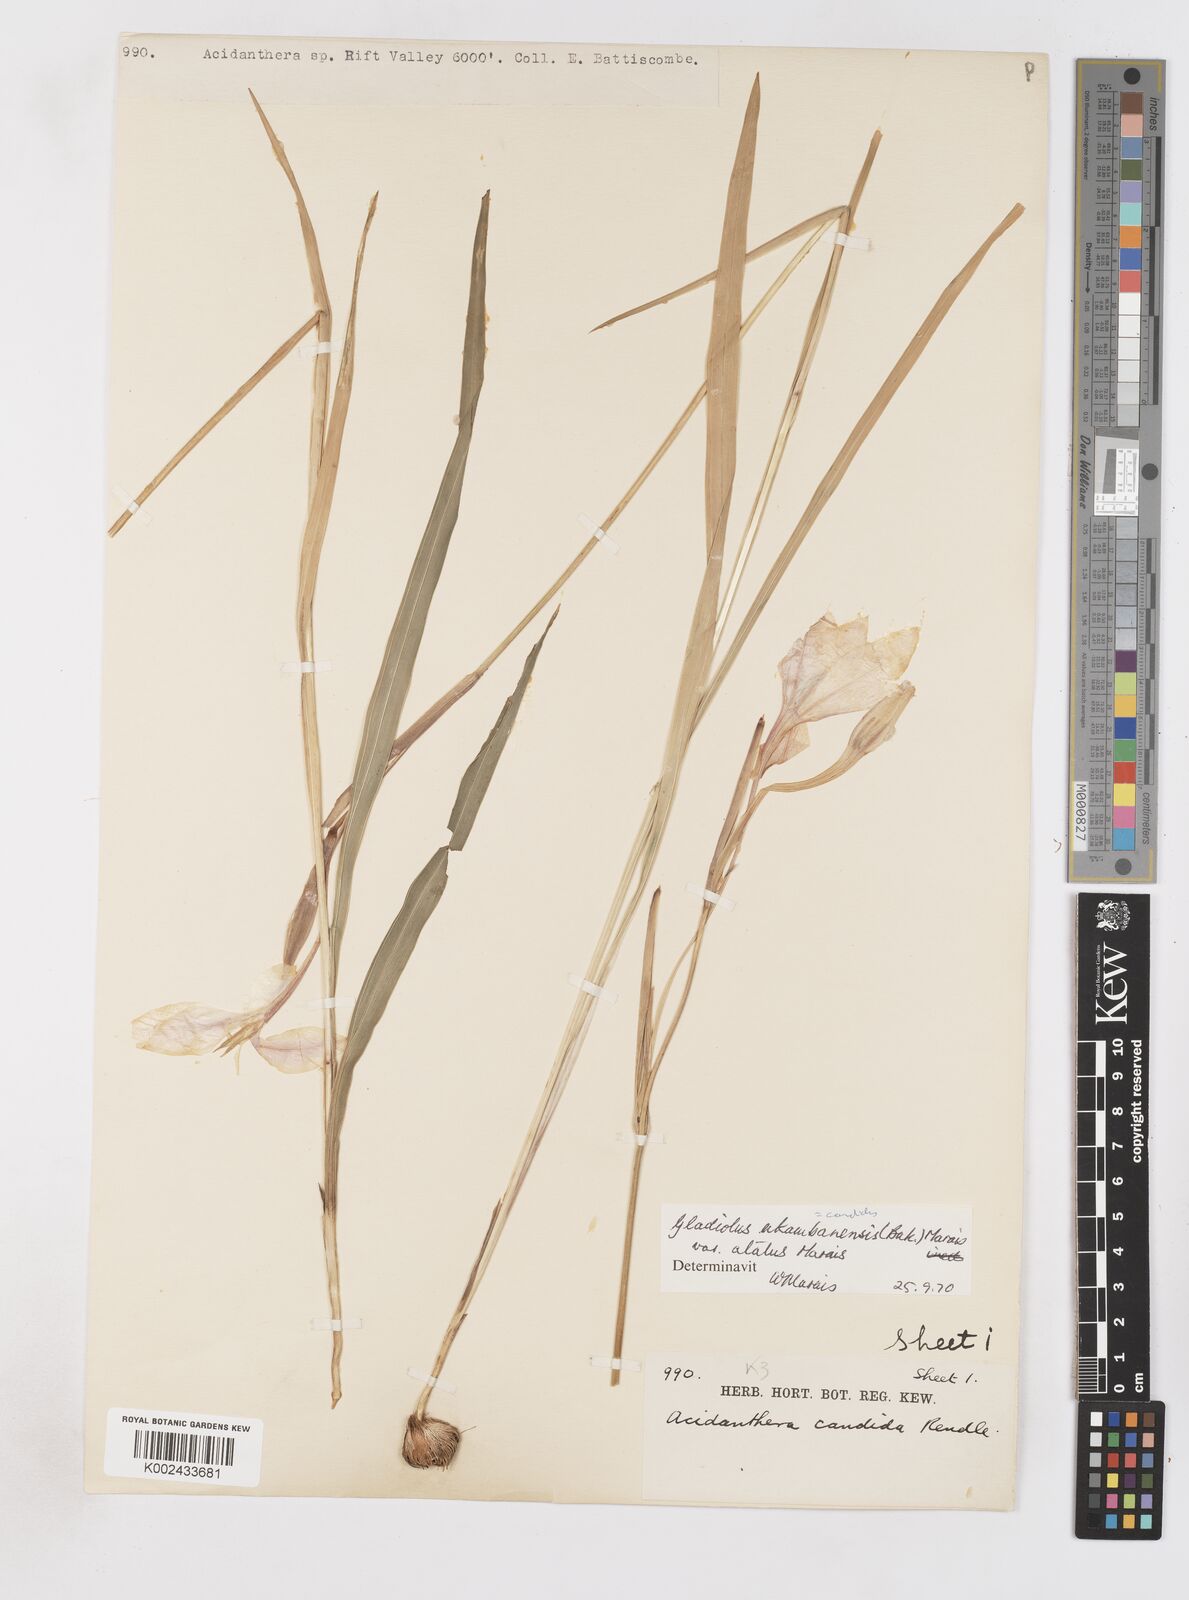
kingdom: Plantae
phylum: Tracheophyta
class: Liliopsida
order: Asparagales
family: Iridaceae
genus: Gladiolus
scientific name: Gladiolus candidus
